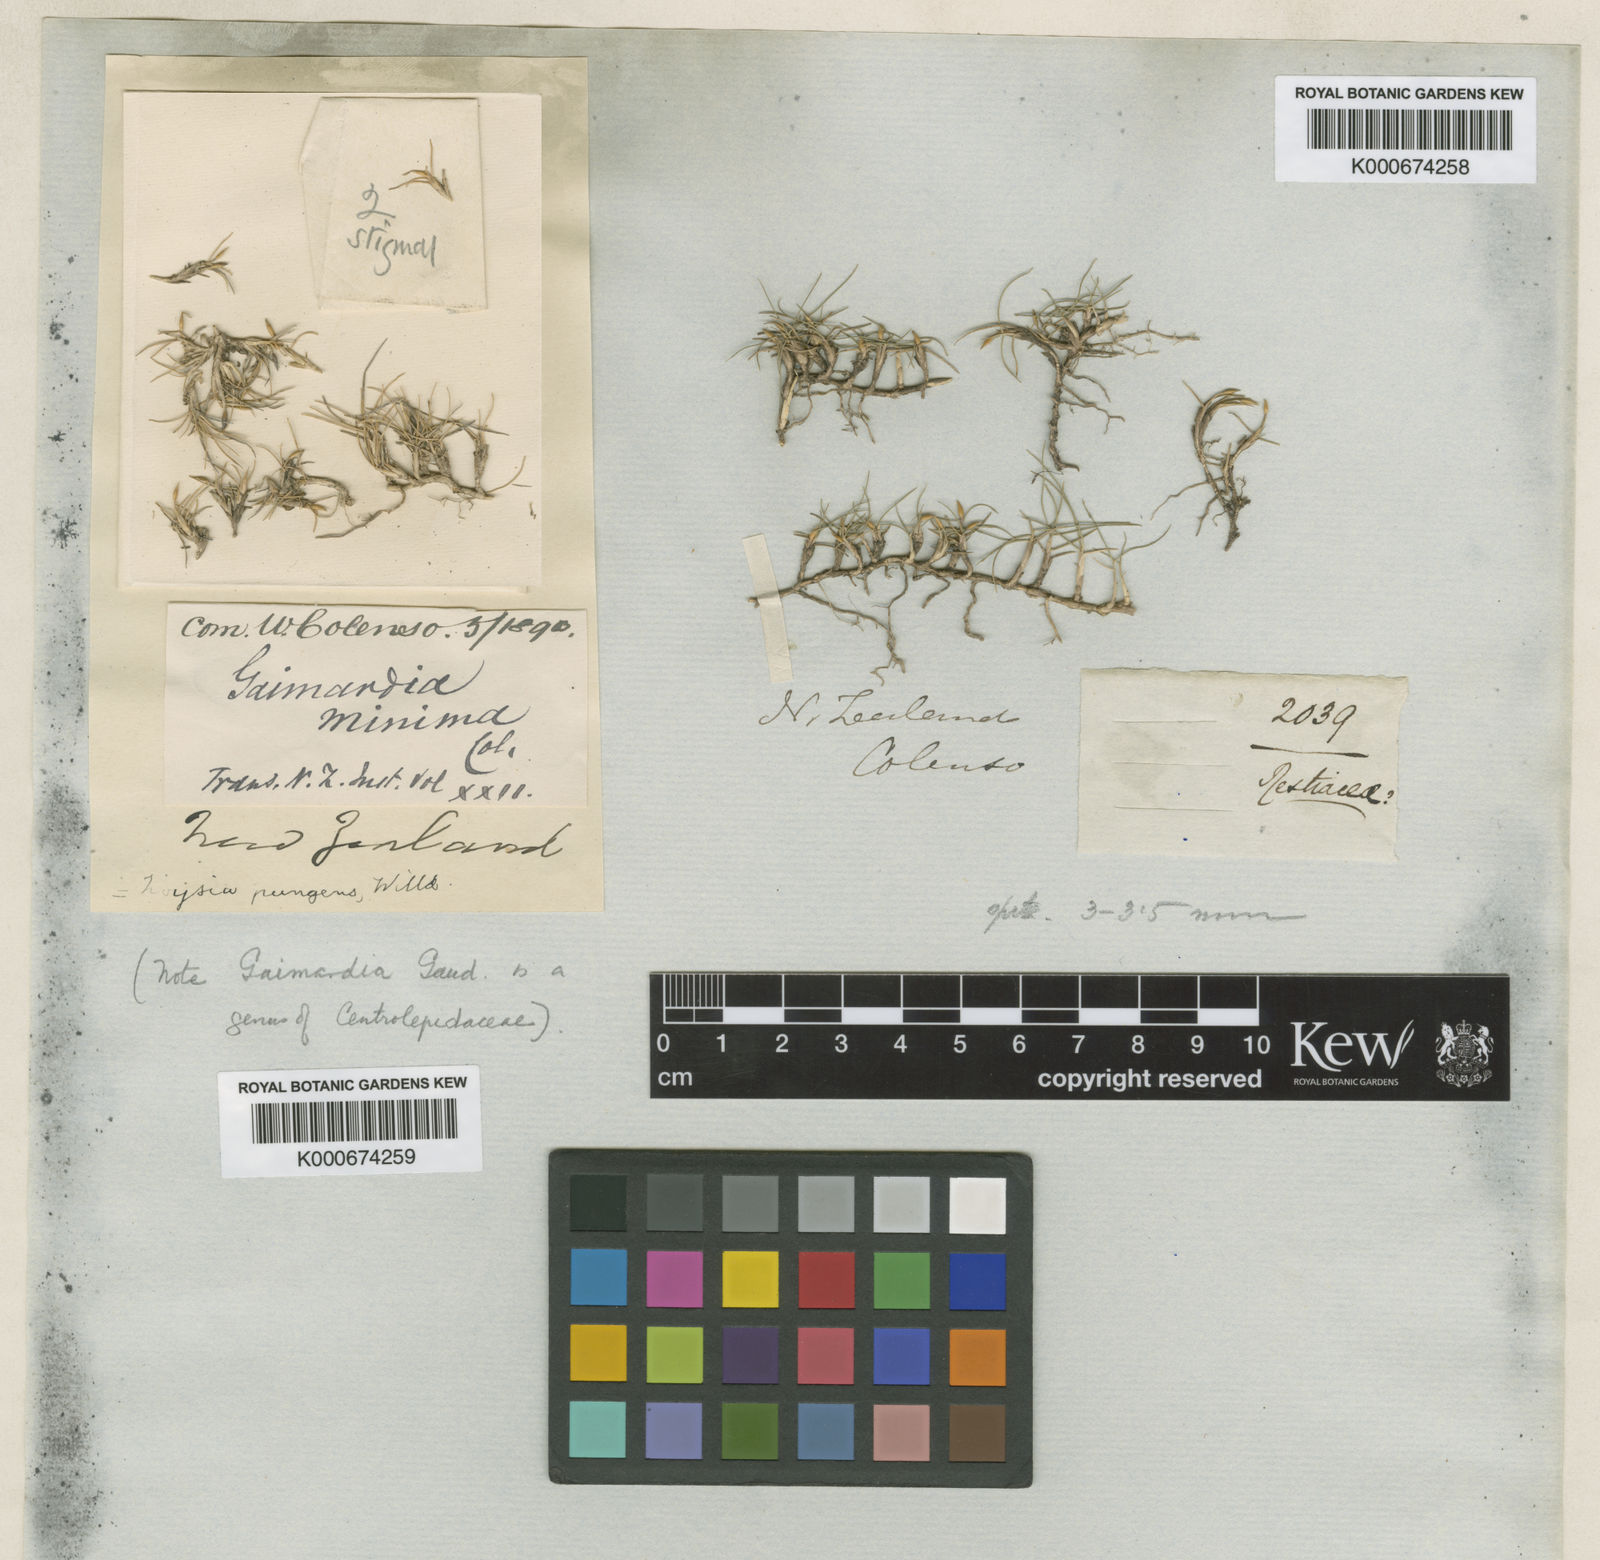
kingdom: Plantae
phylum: Tracheophyta
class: Liliopsida
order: Poales
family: Poaceae
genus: Zoysia
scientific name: Zoysia minima
